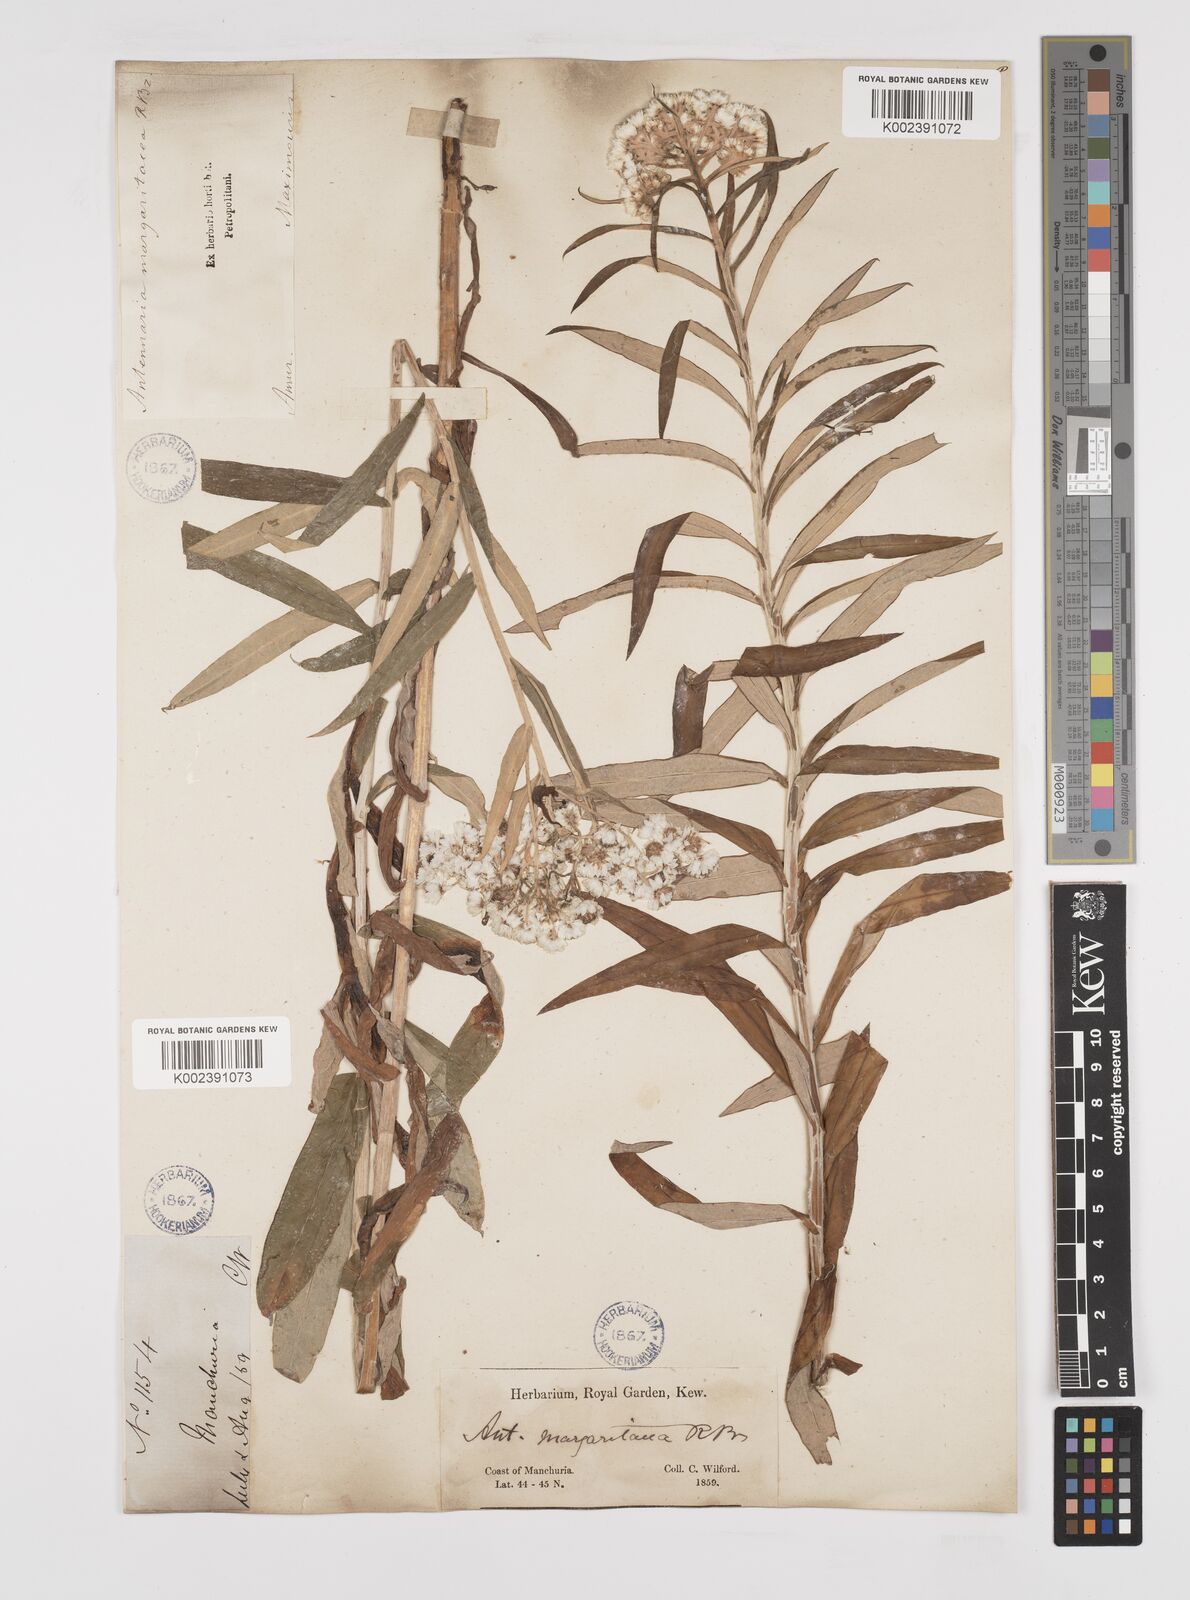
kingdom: Plantae
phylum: Tracheophyta
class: Magnoliopsida
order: Asterales
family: Asteraceae
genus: Anaphalis
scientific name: Anaphalis margaritacea
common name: Pearly everlasting
